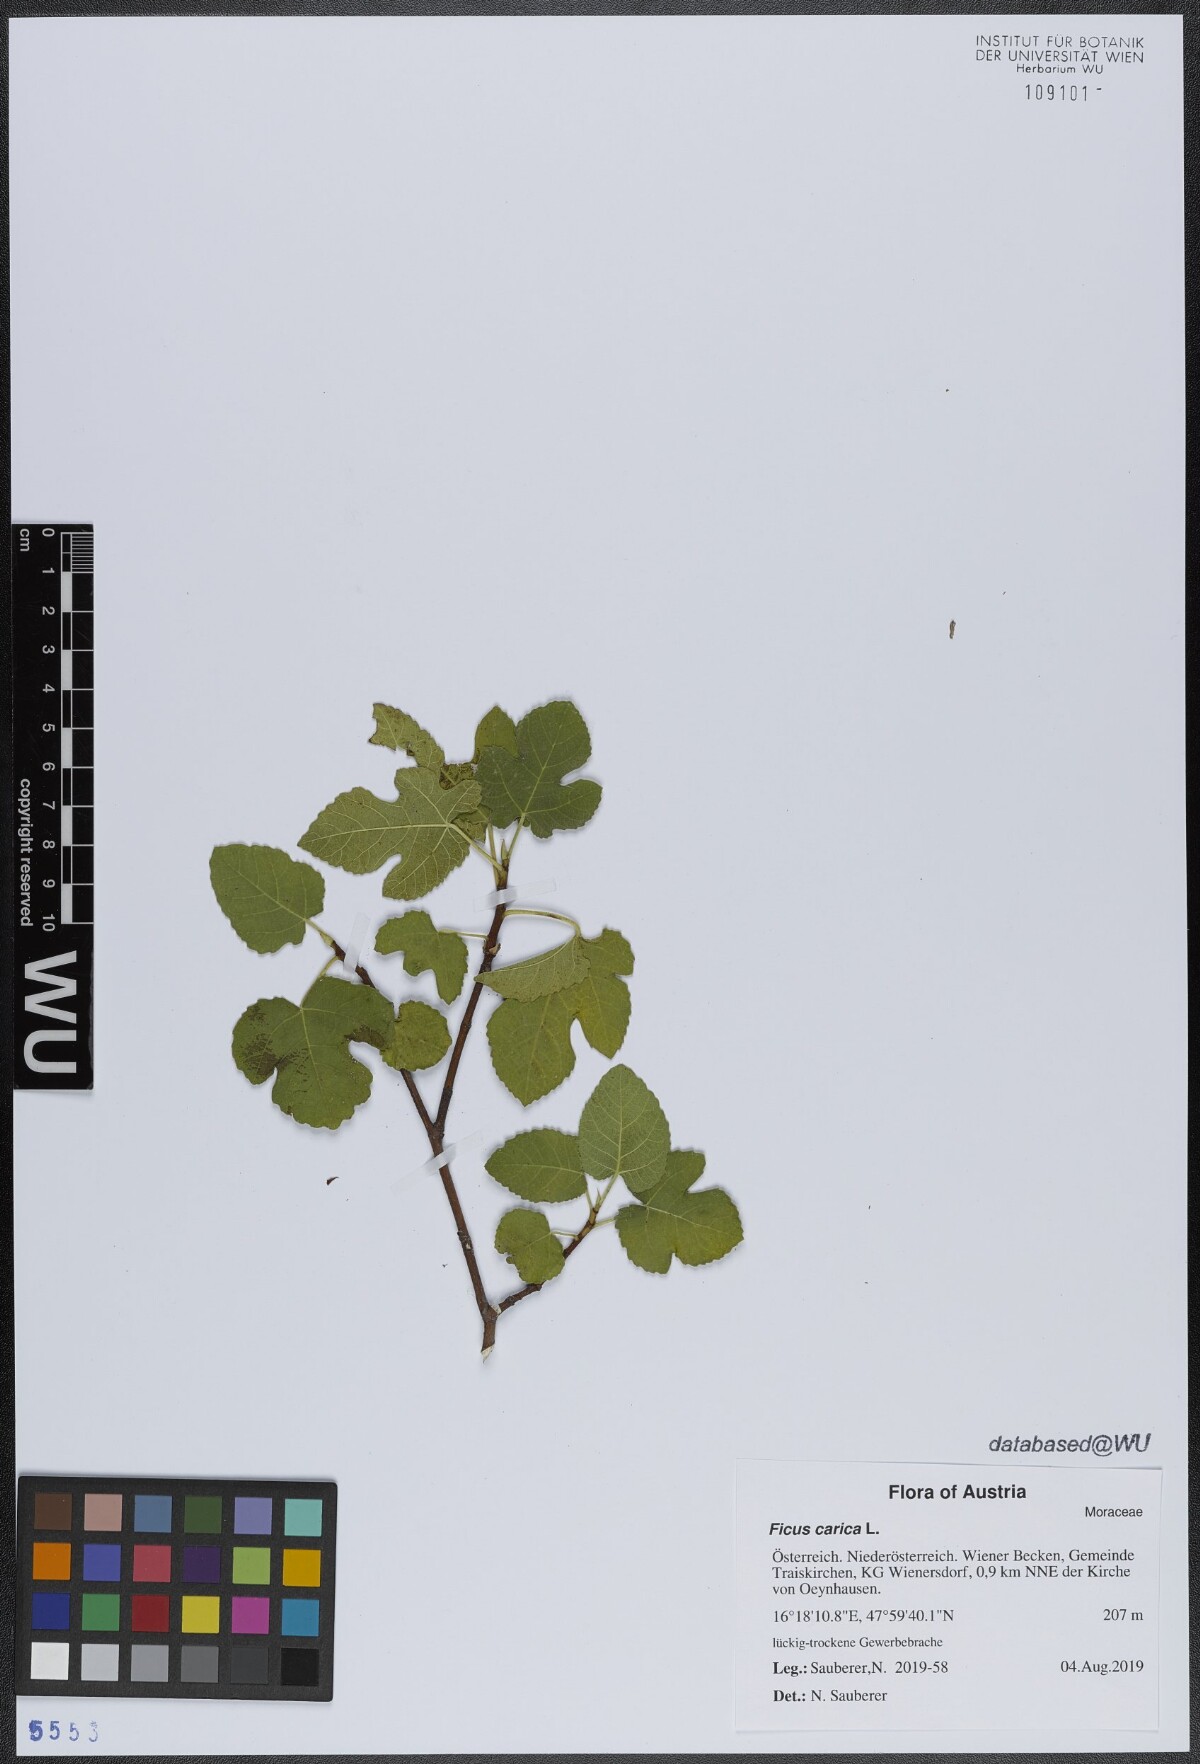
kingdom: Plantae
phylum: Tracheophyta
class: Magnoliopsida
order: Rosales
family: Moraceae
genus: Ficus
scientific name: Ficus carica
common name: Fig
